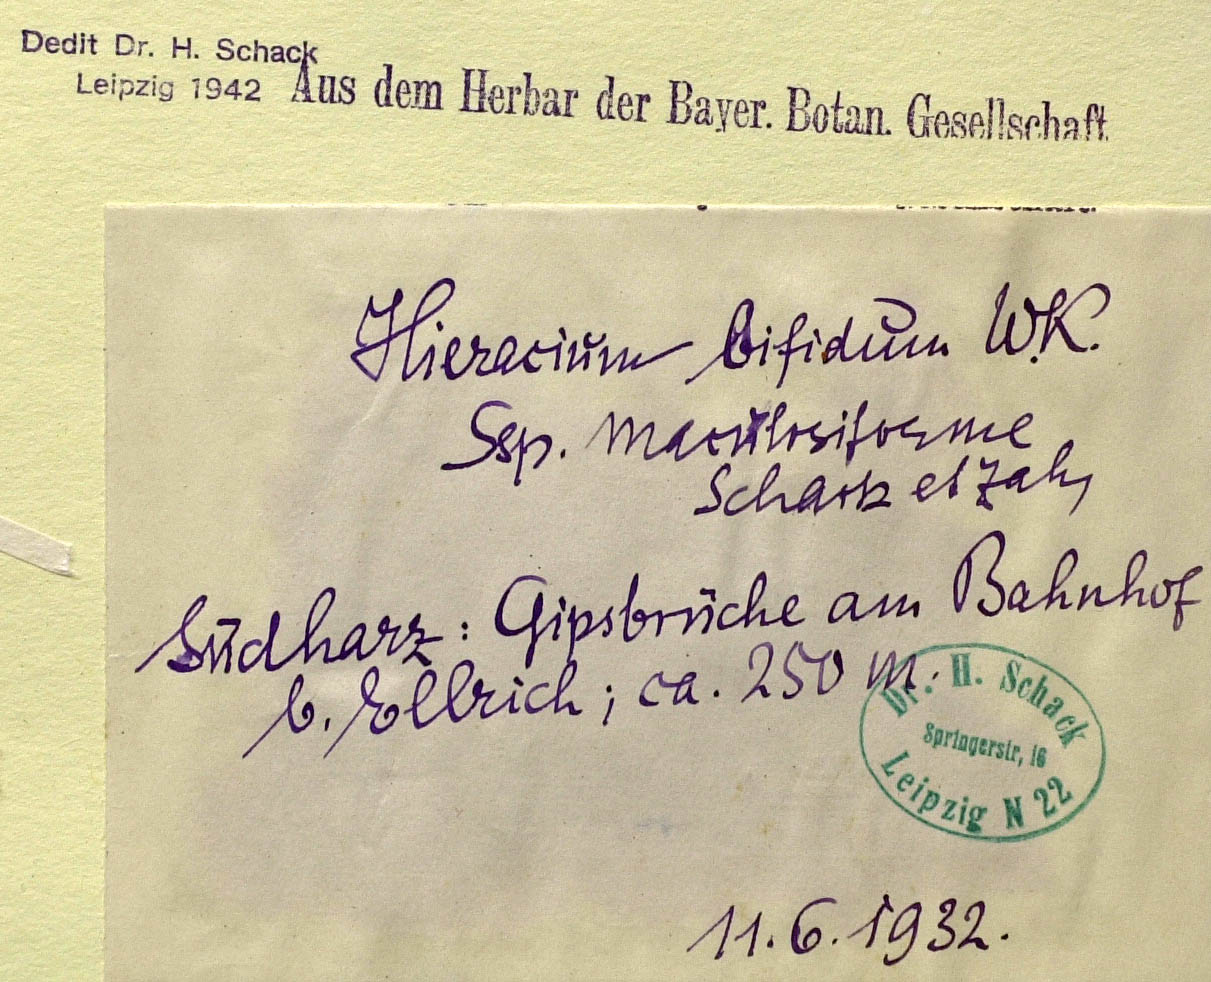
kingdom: Plantae
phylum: Tracheophyta
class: Magnoliopsida
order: Asterales
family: Asteraceae
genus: Hieracium
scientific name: Hieracium bifidum
